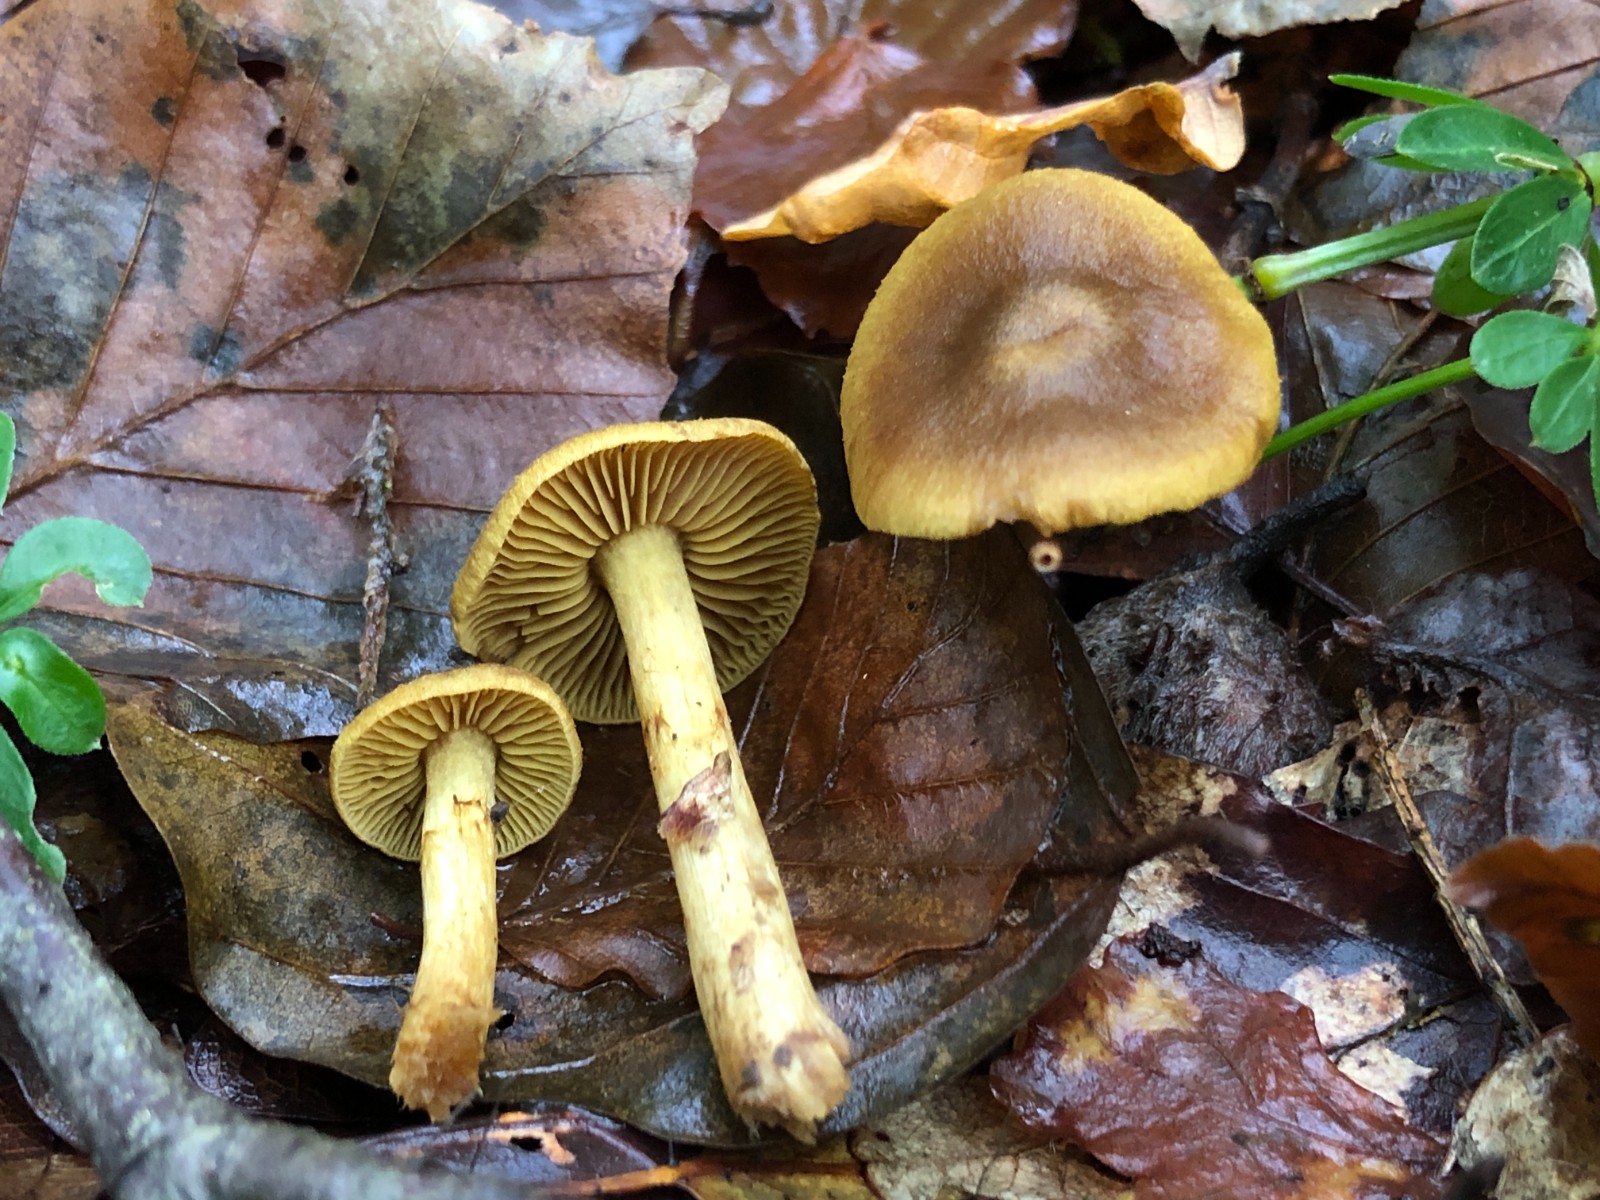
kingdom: Fungi
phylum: Basidiomycota
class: Agaricomycetes
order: Agaricales
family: Cortinariaceae
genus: Cortinarius
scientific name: Cortinarius olivaceofuscus
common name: olivenbrun slørhat
